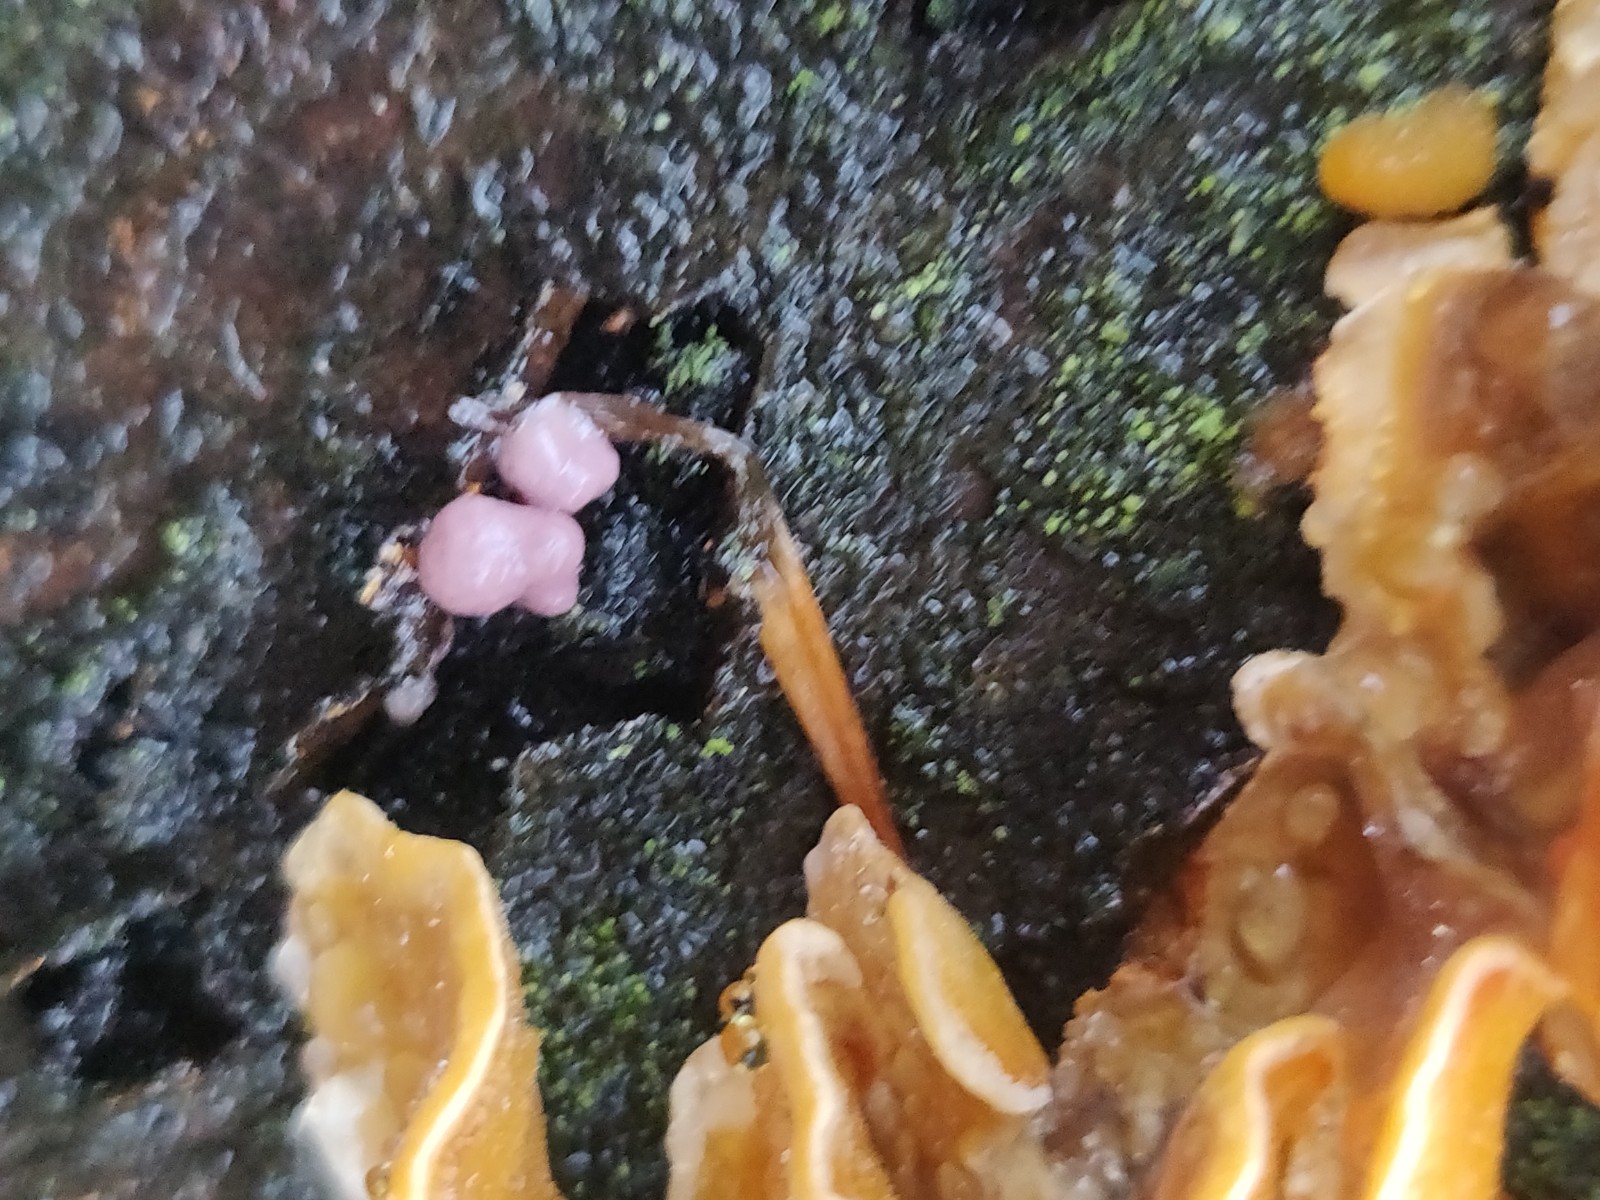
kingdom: Fungi
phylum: Ascomycota
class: Leotiomycetes
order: Helotiales
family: Gelatinodiscaceae
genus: Ascocoryne
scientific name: Ascocoryne sarcoides
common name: rødlilla sejskive
